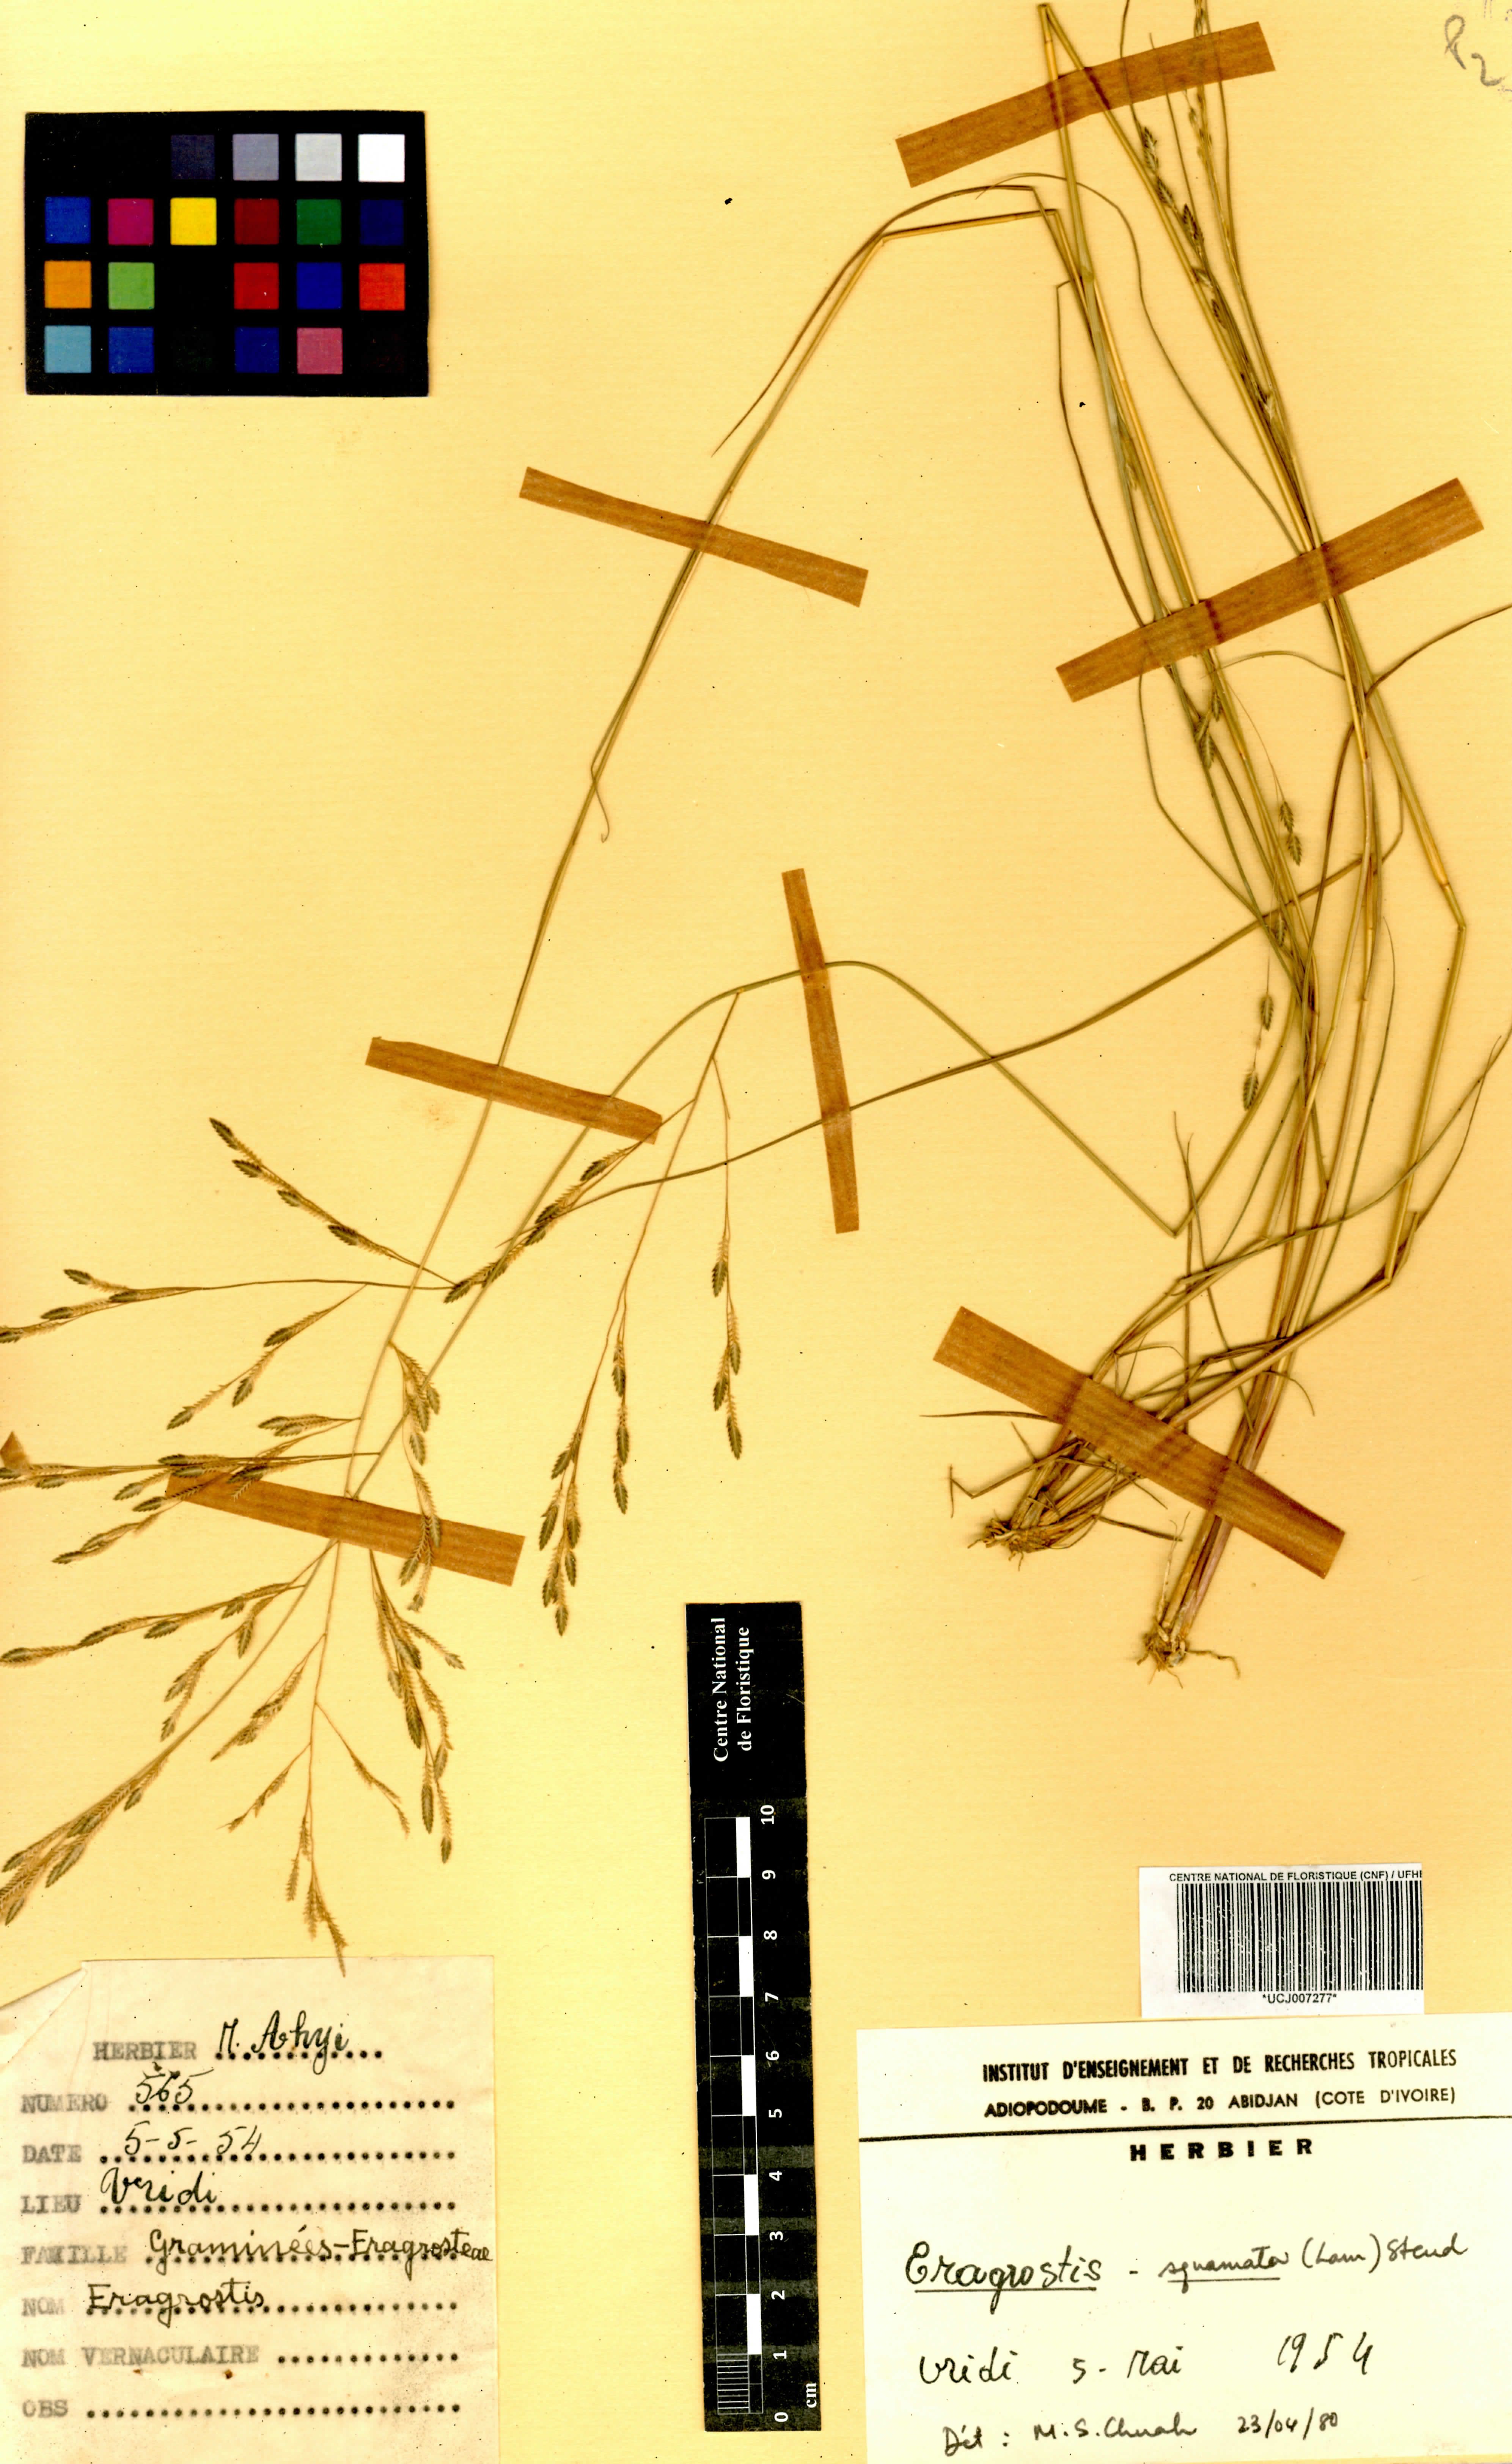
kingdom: Plantae
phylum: Tracheophyta
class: Liliopsida
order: Poales
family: Poaceae
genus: Eragrostis
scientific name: Eragrostis squamata
